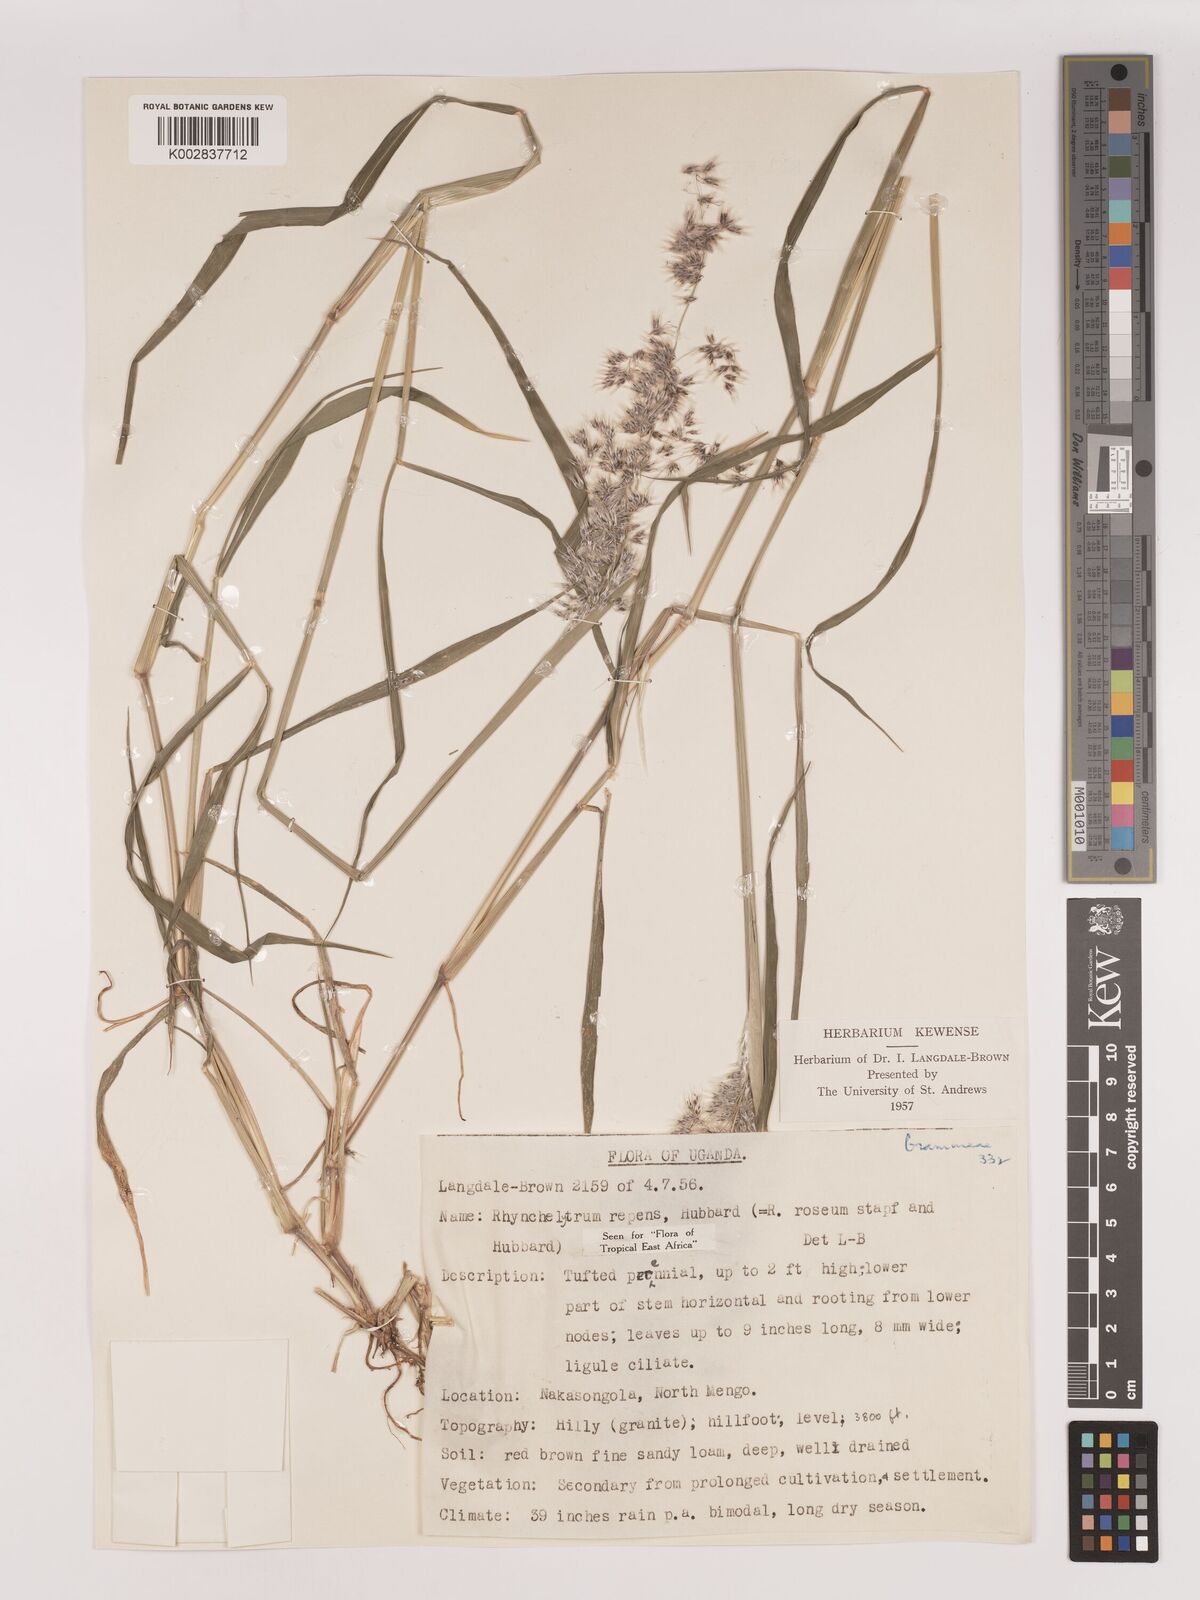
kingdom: Plantae
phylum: Tracheophyta
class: Liliopsida
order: Poales
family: Poaceae
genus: Melinis
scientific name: Melinis repens
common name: Rose natal grass
